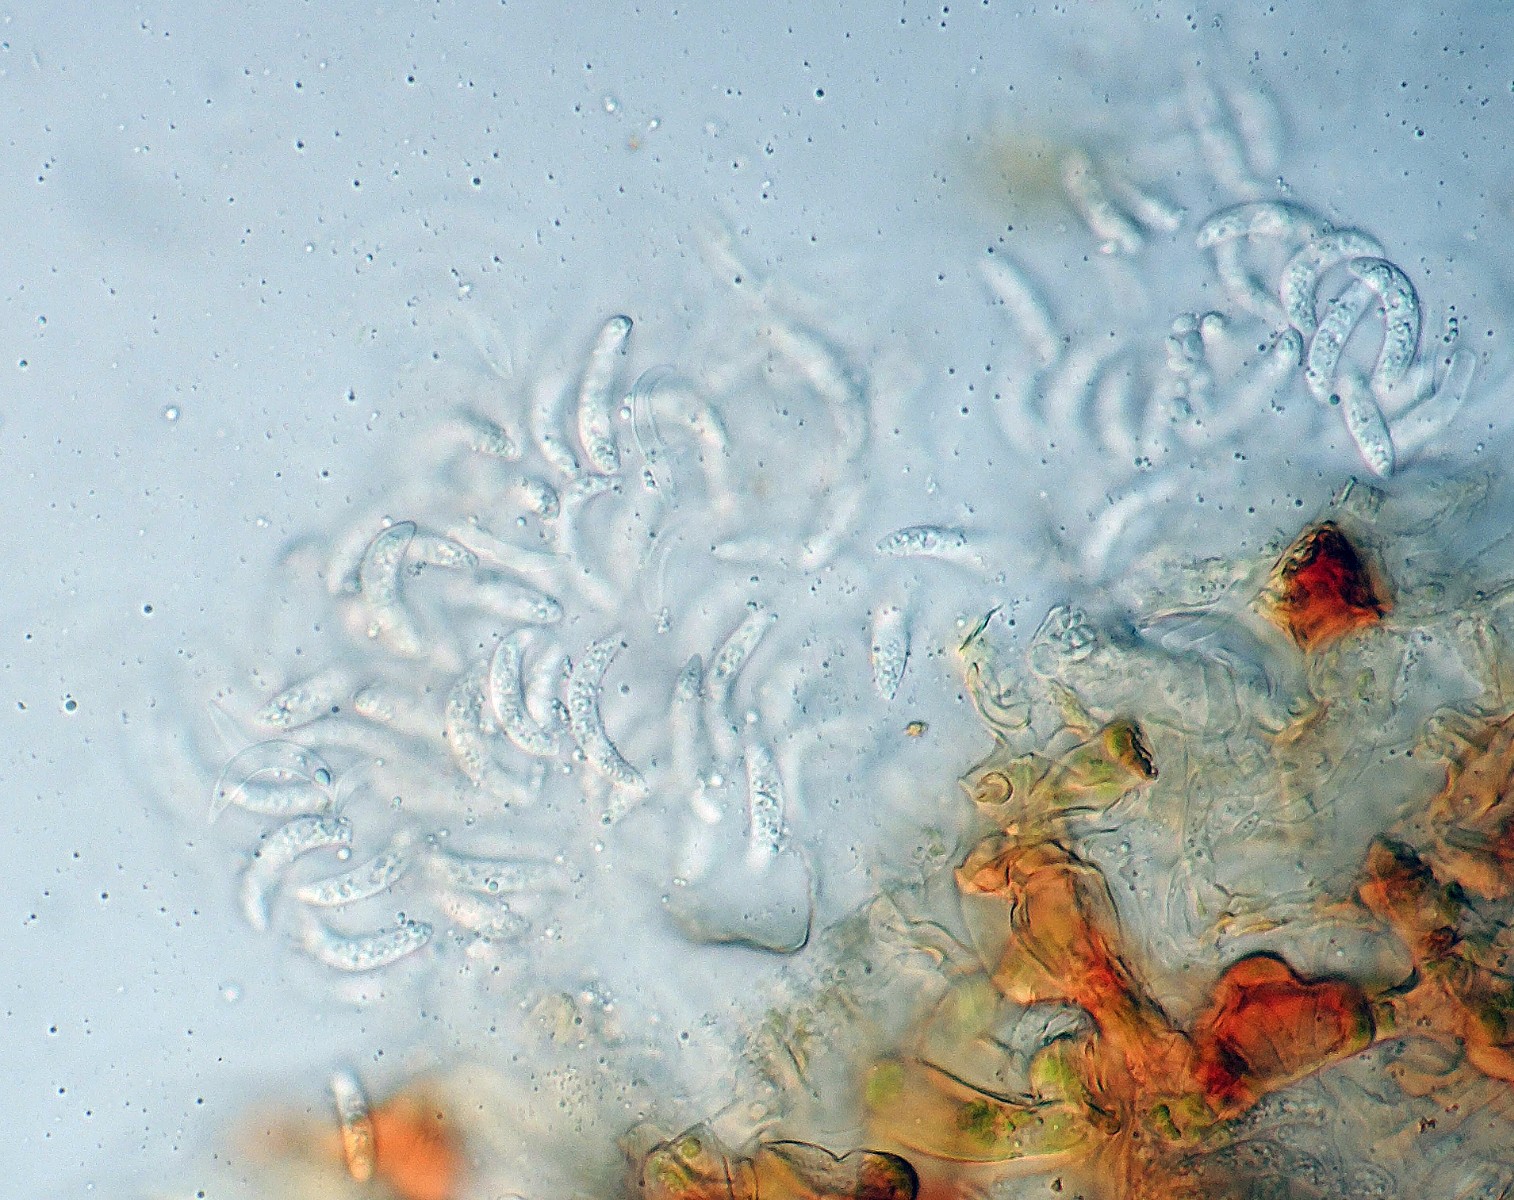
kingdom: Fungi
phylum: Ascomycota
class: Sordariomycetes
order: Diaporthales
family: Gnomoniaceae
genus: Ophiognomonia
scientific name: Ophiognomonia leptostyla
